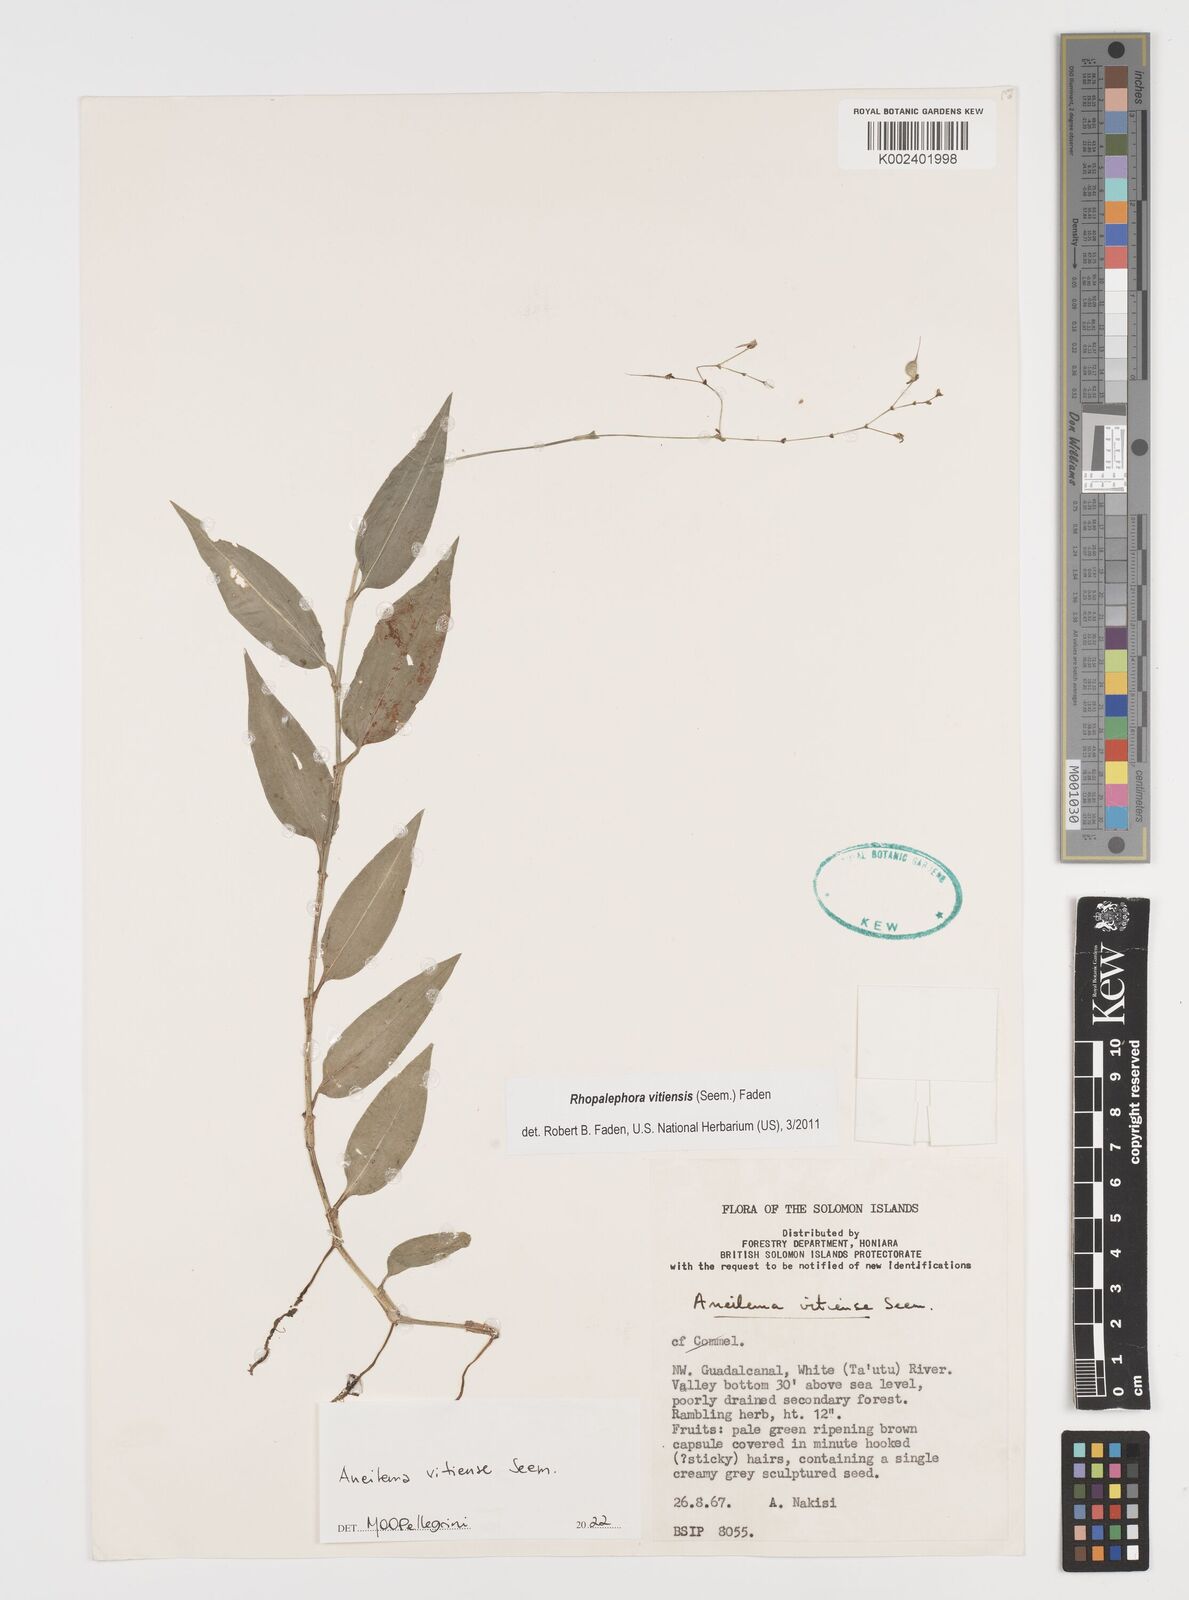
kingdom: Plantae
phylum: Tracheophyta
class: Liliopsida
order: Commelinales
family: Commelinaceae
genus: Rhopalephora
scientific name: Rhopalephora vitiensis
